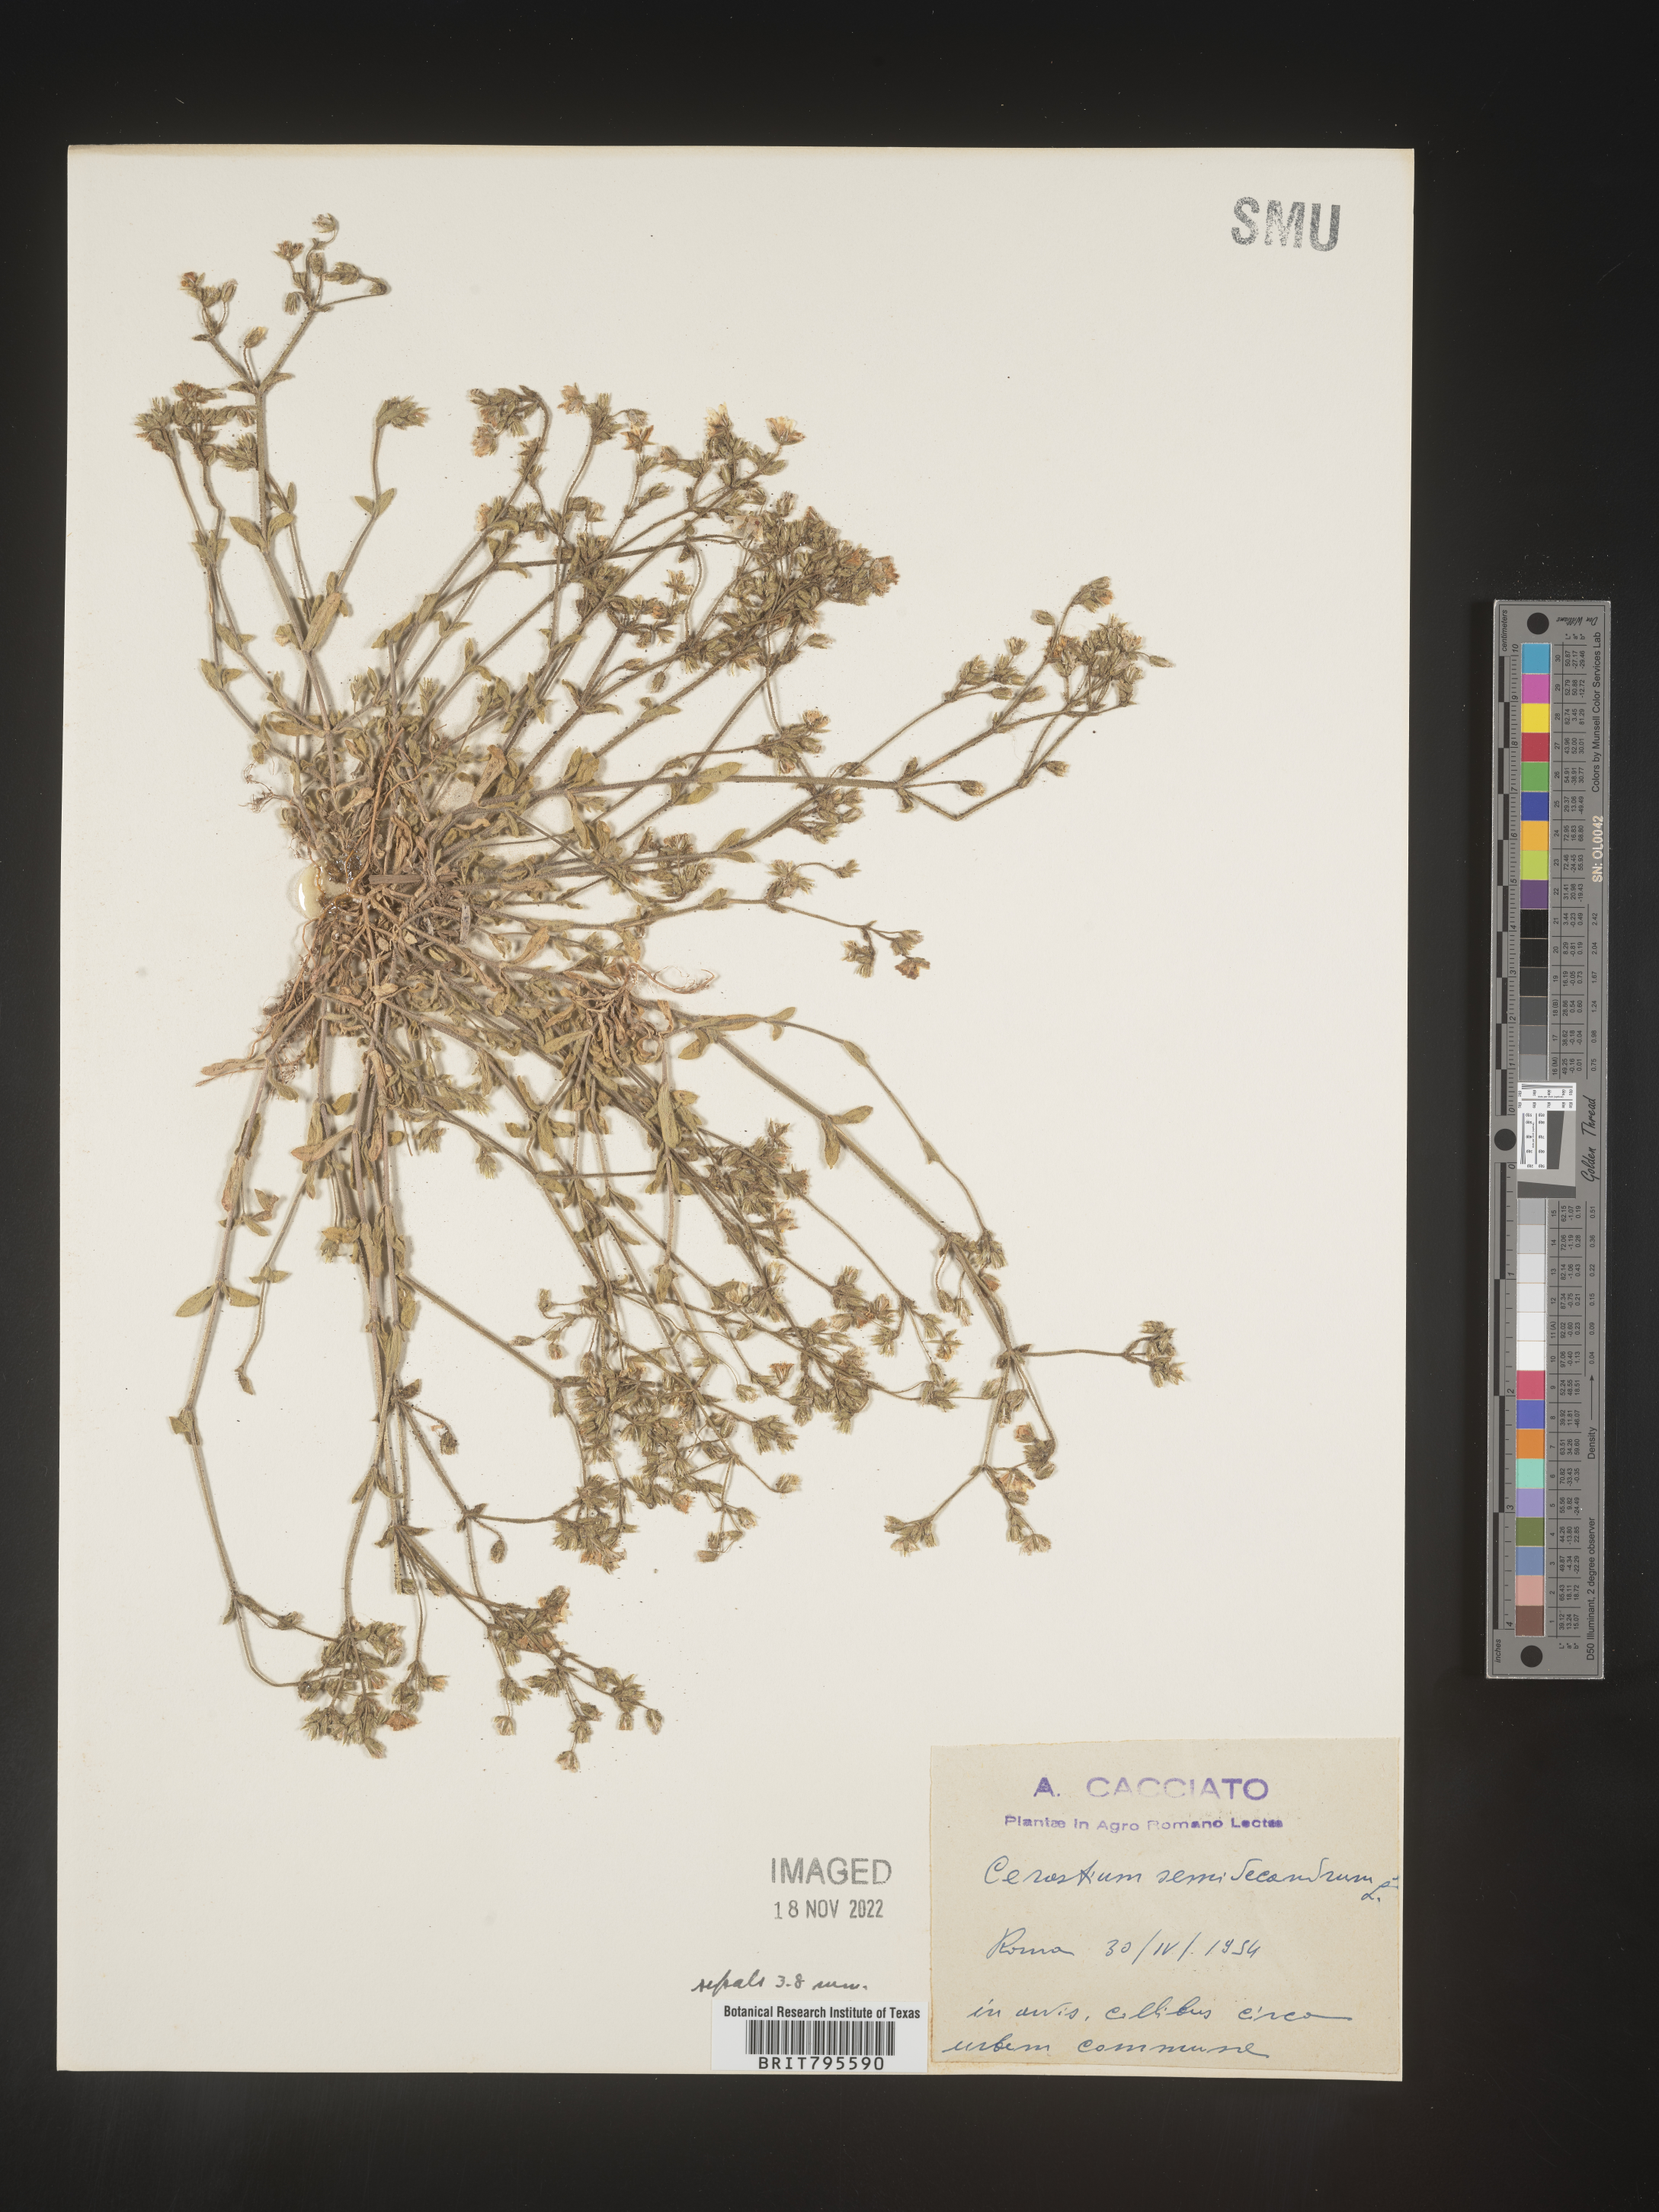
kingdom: Plantae
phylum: Tracheophyta
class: Magnoliopsida
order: Caryophyllales
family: Caryophyllaceae
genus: Cerastium
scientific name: Cerastium
